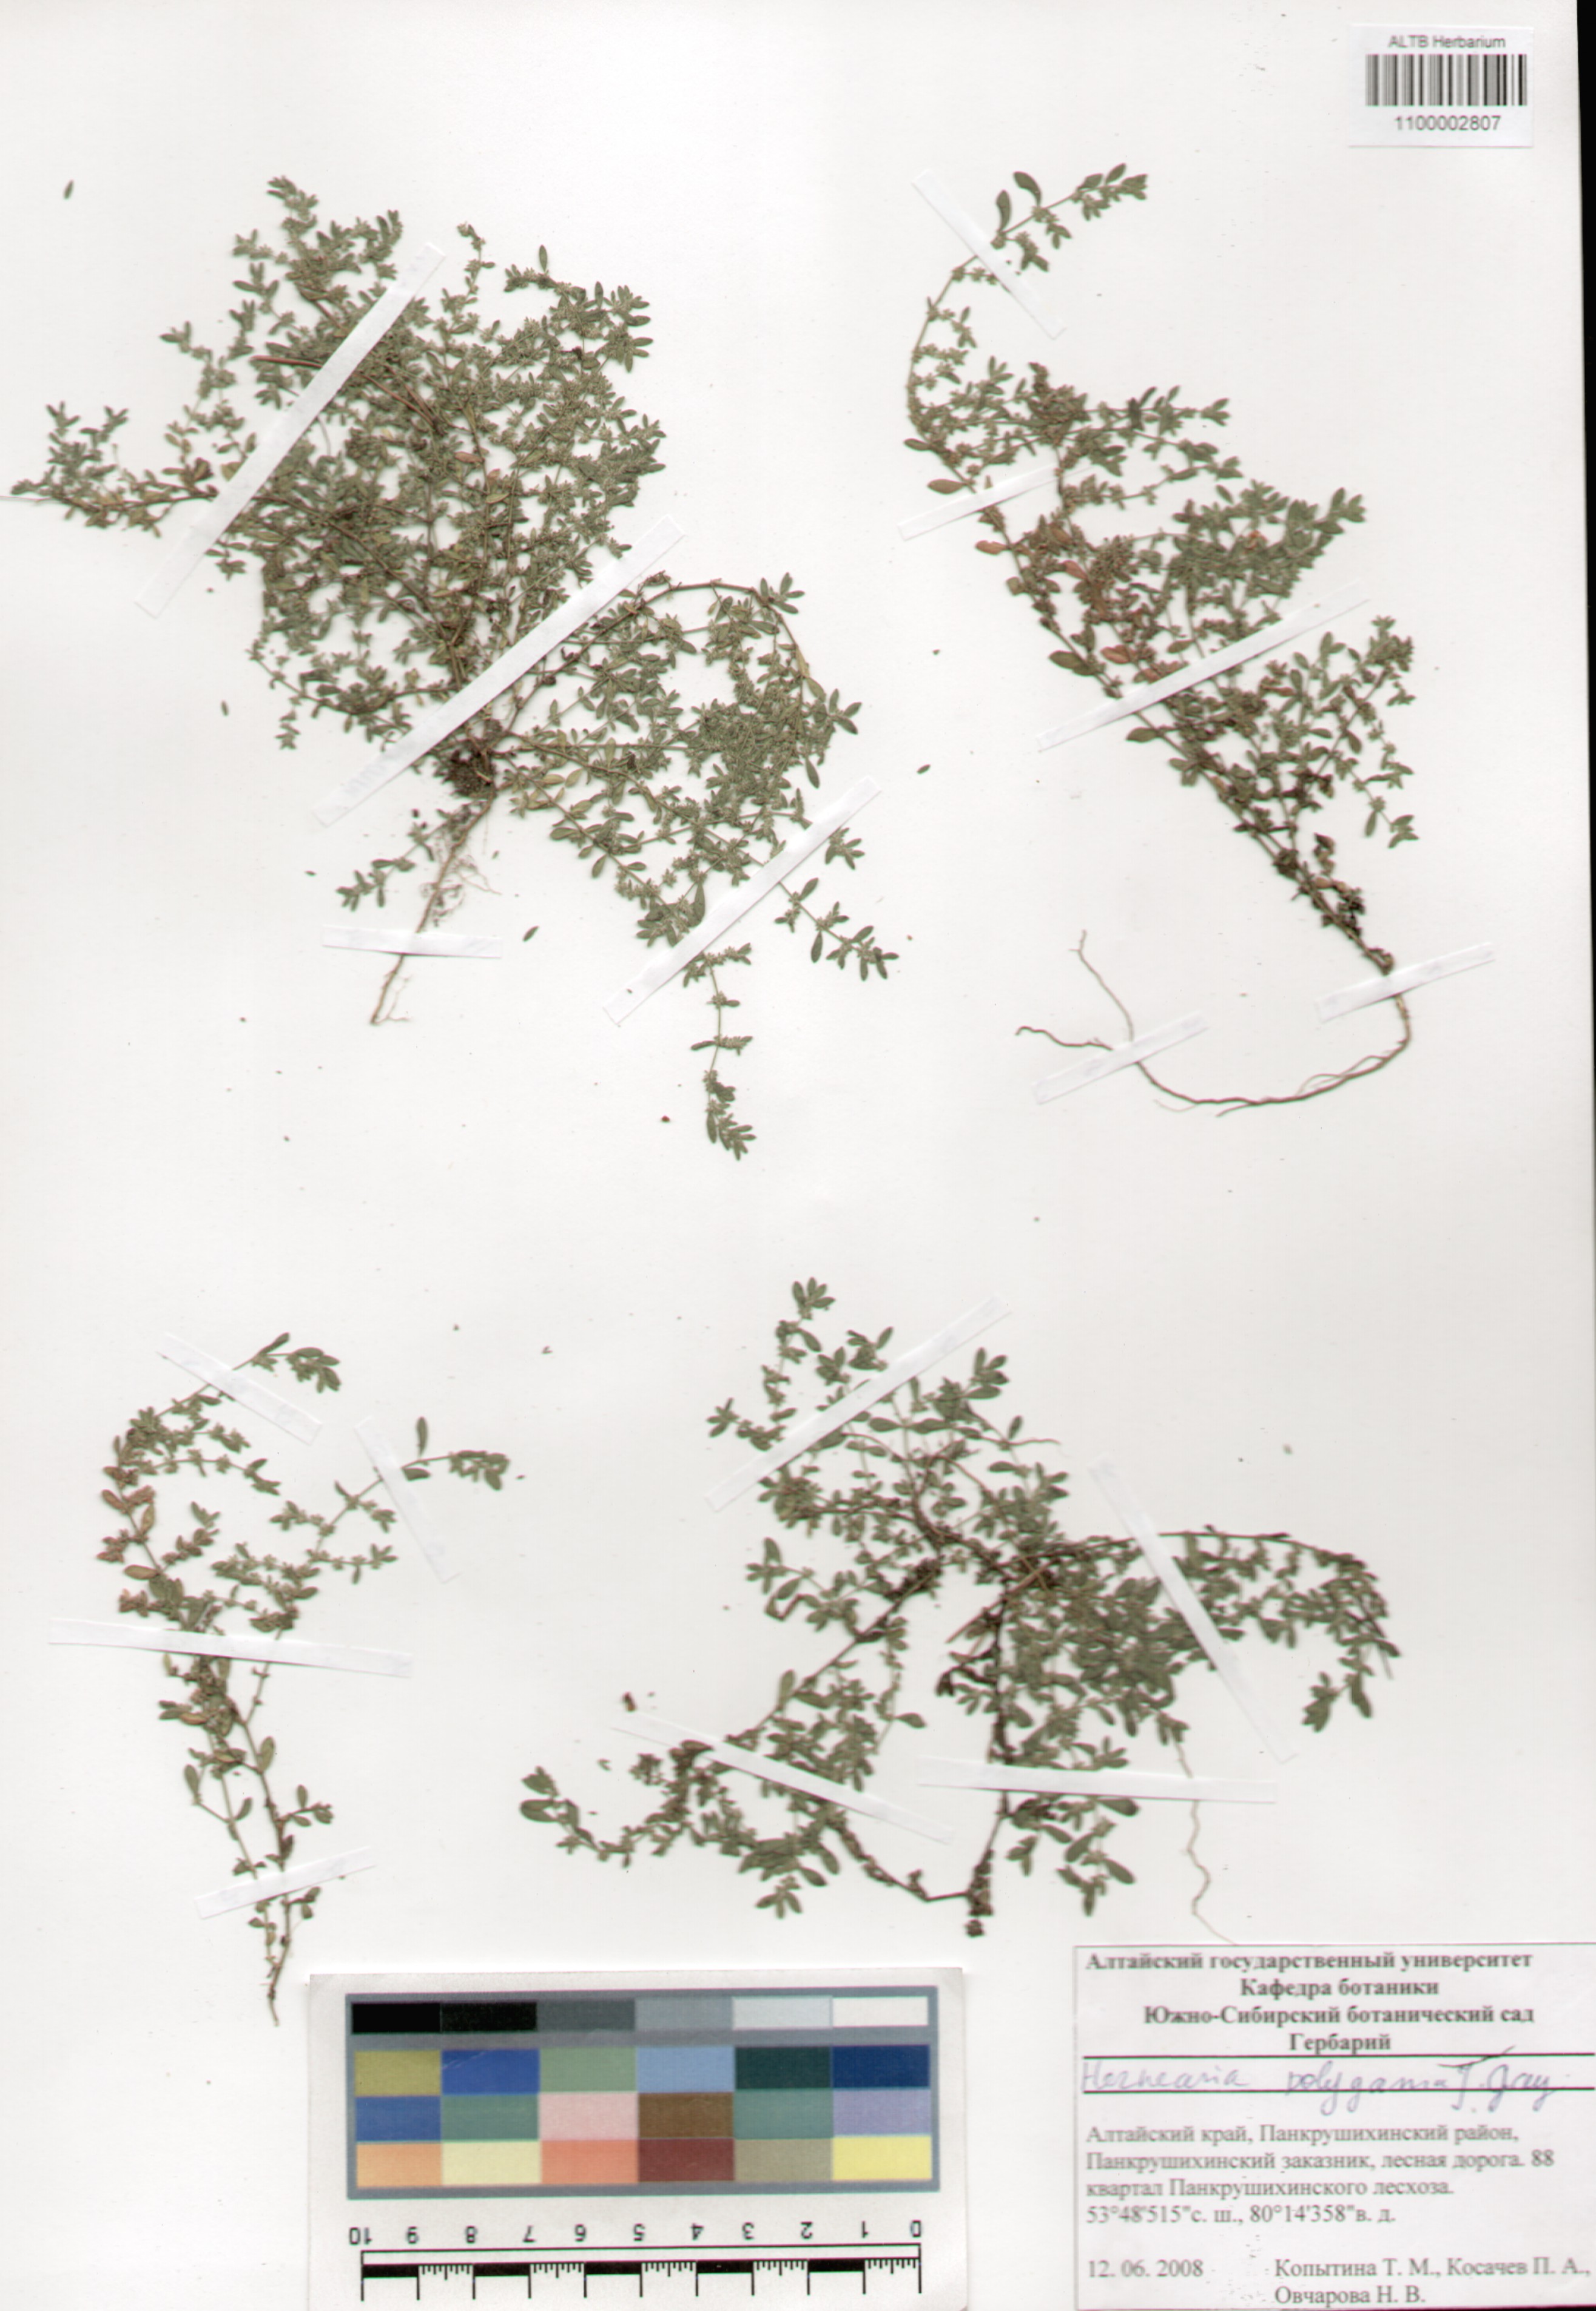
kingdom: Plantae
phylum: Tracheophyta
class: Magnoliopsida
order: Caryophyllales
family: Caryophyllaceae
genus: Herniaria
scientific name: Herniaria polygama
